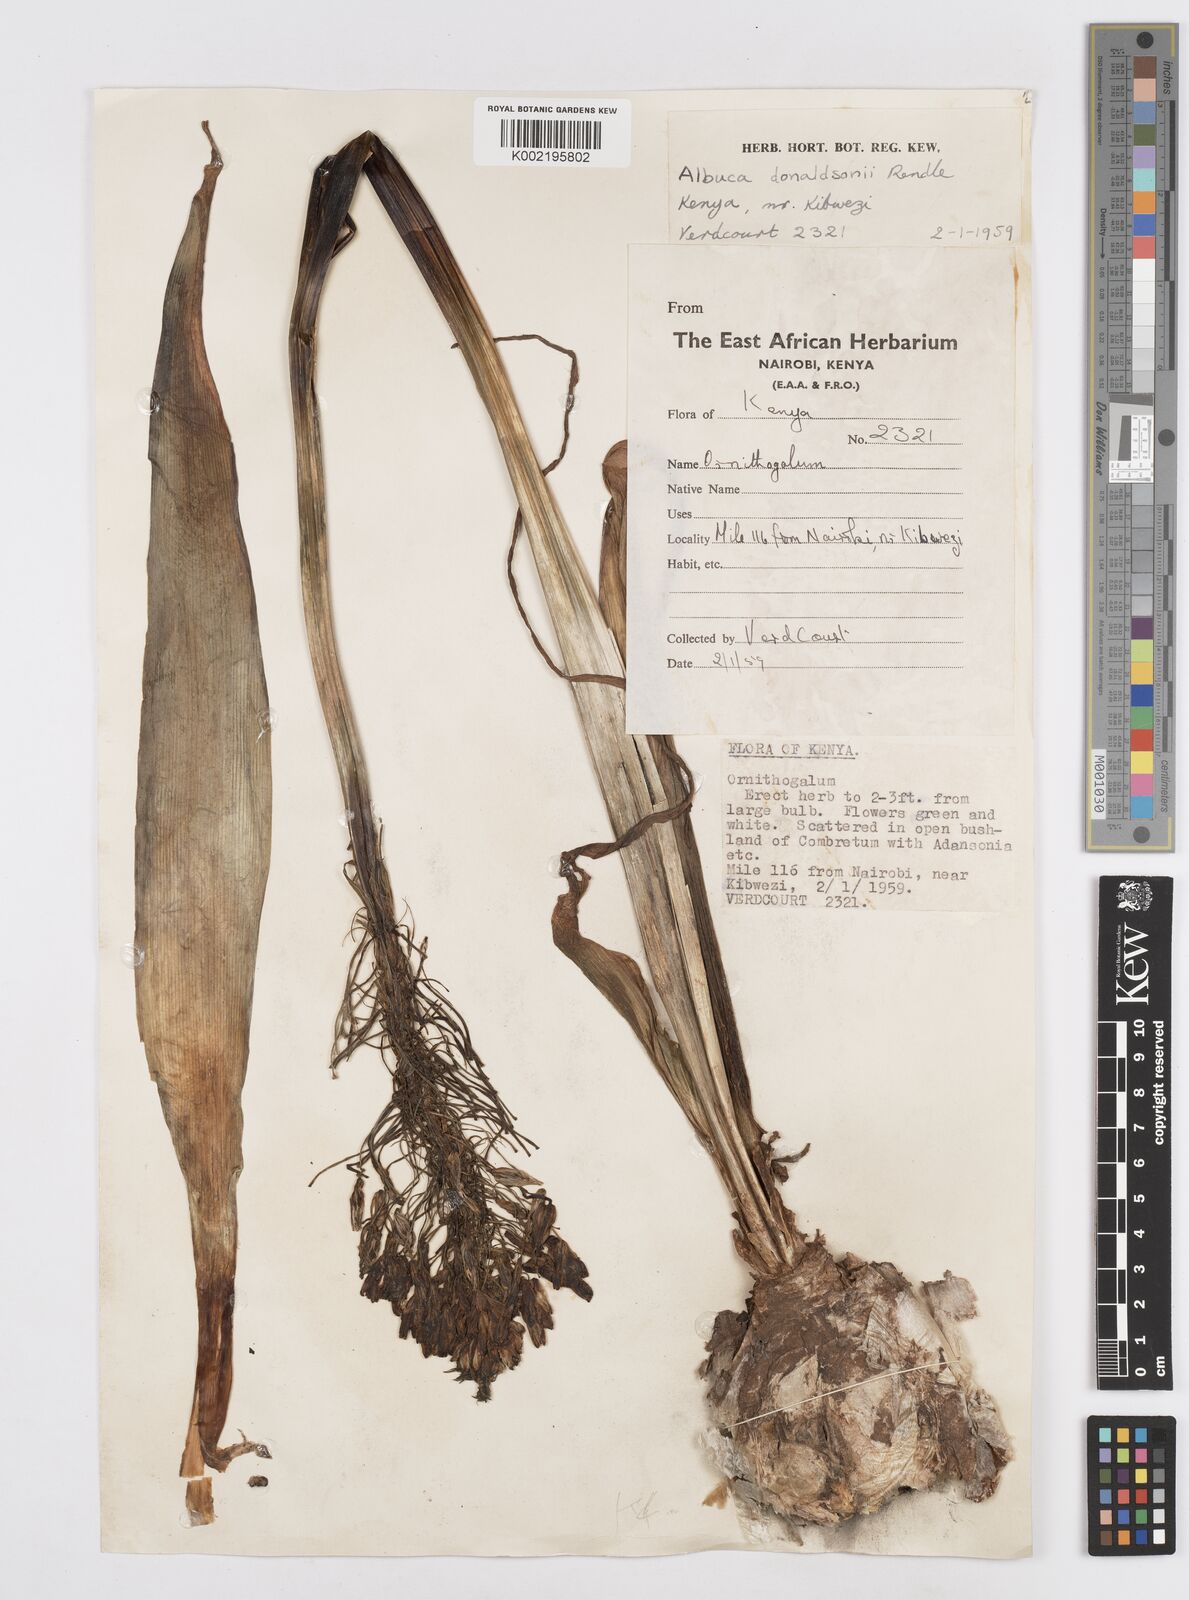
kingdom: Plantae
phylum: Tracheophyta
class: Liliopsida
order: Asparagales
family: Asparagaceae
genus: Albuca
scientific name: Albuca donaldsonii
